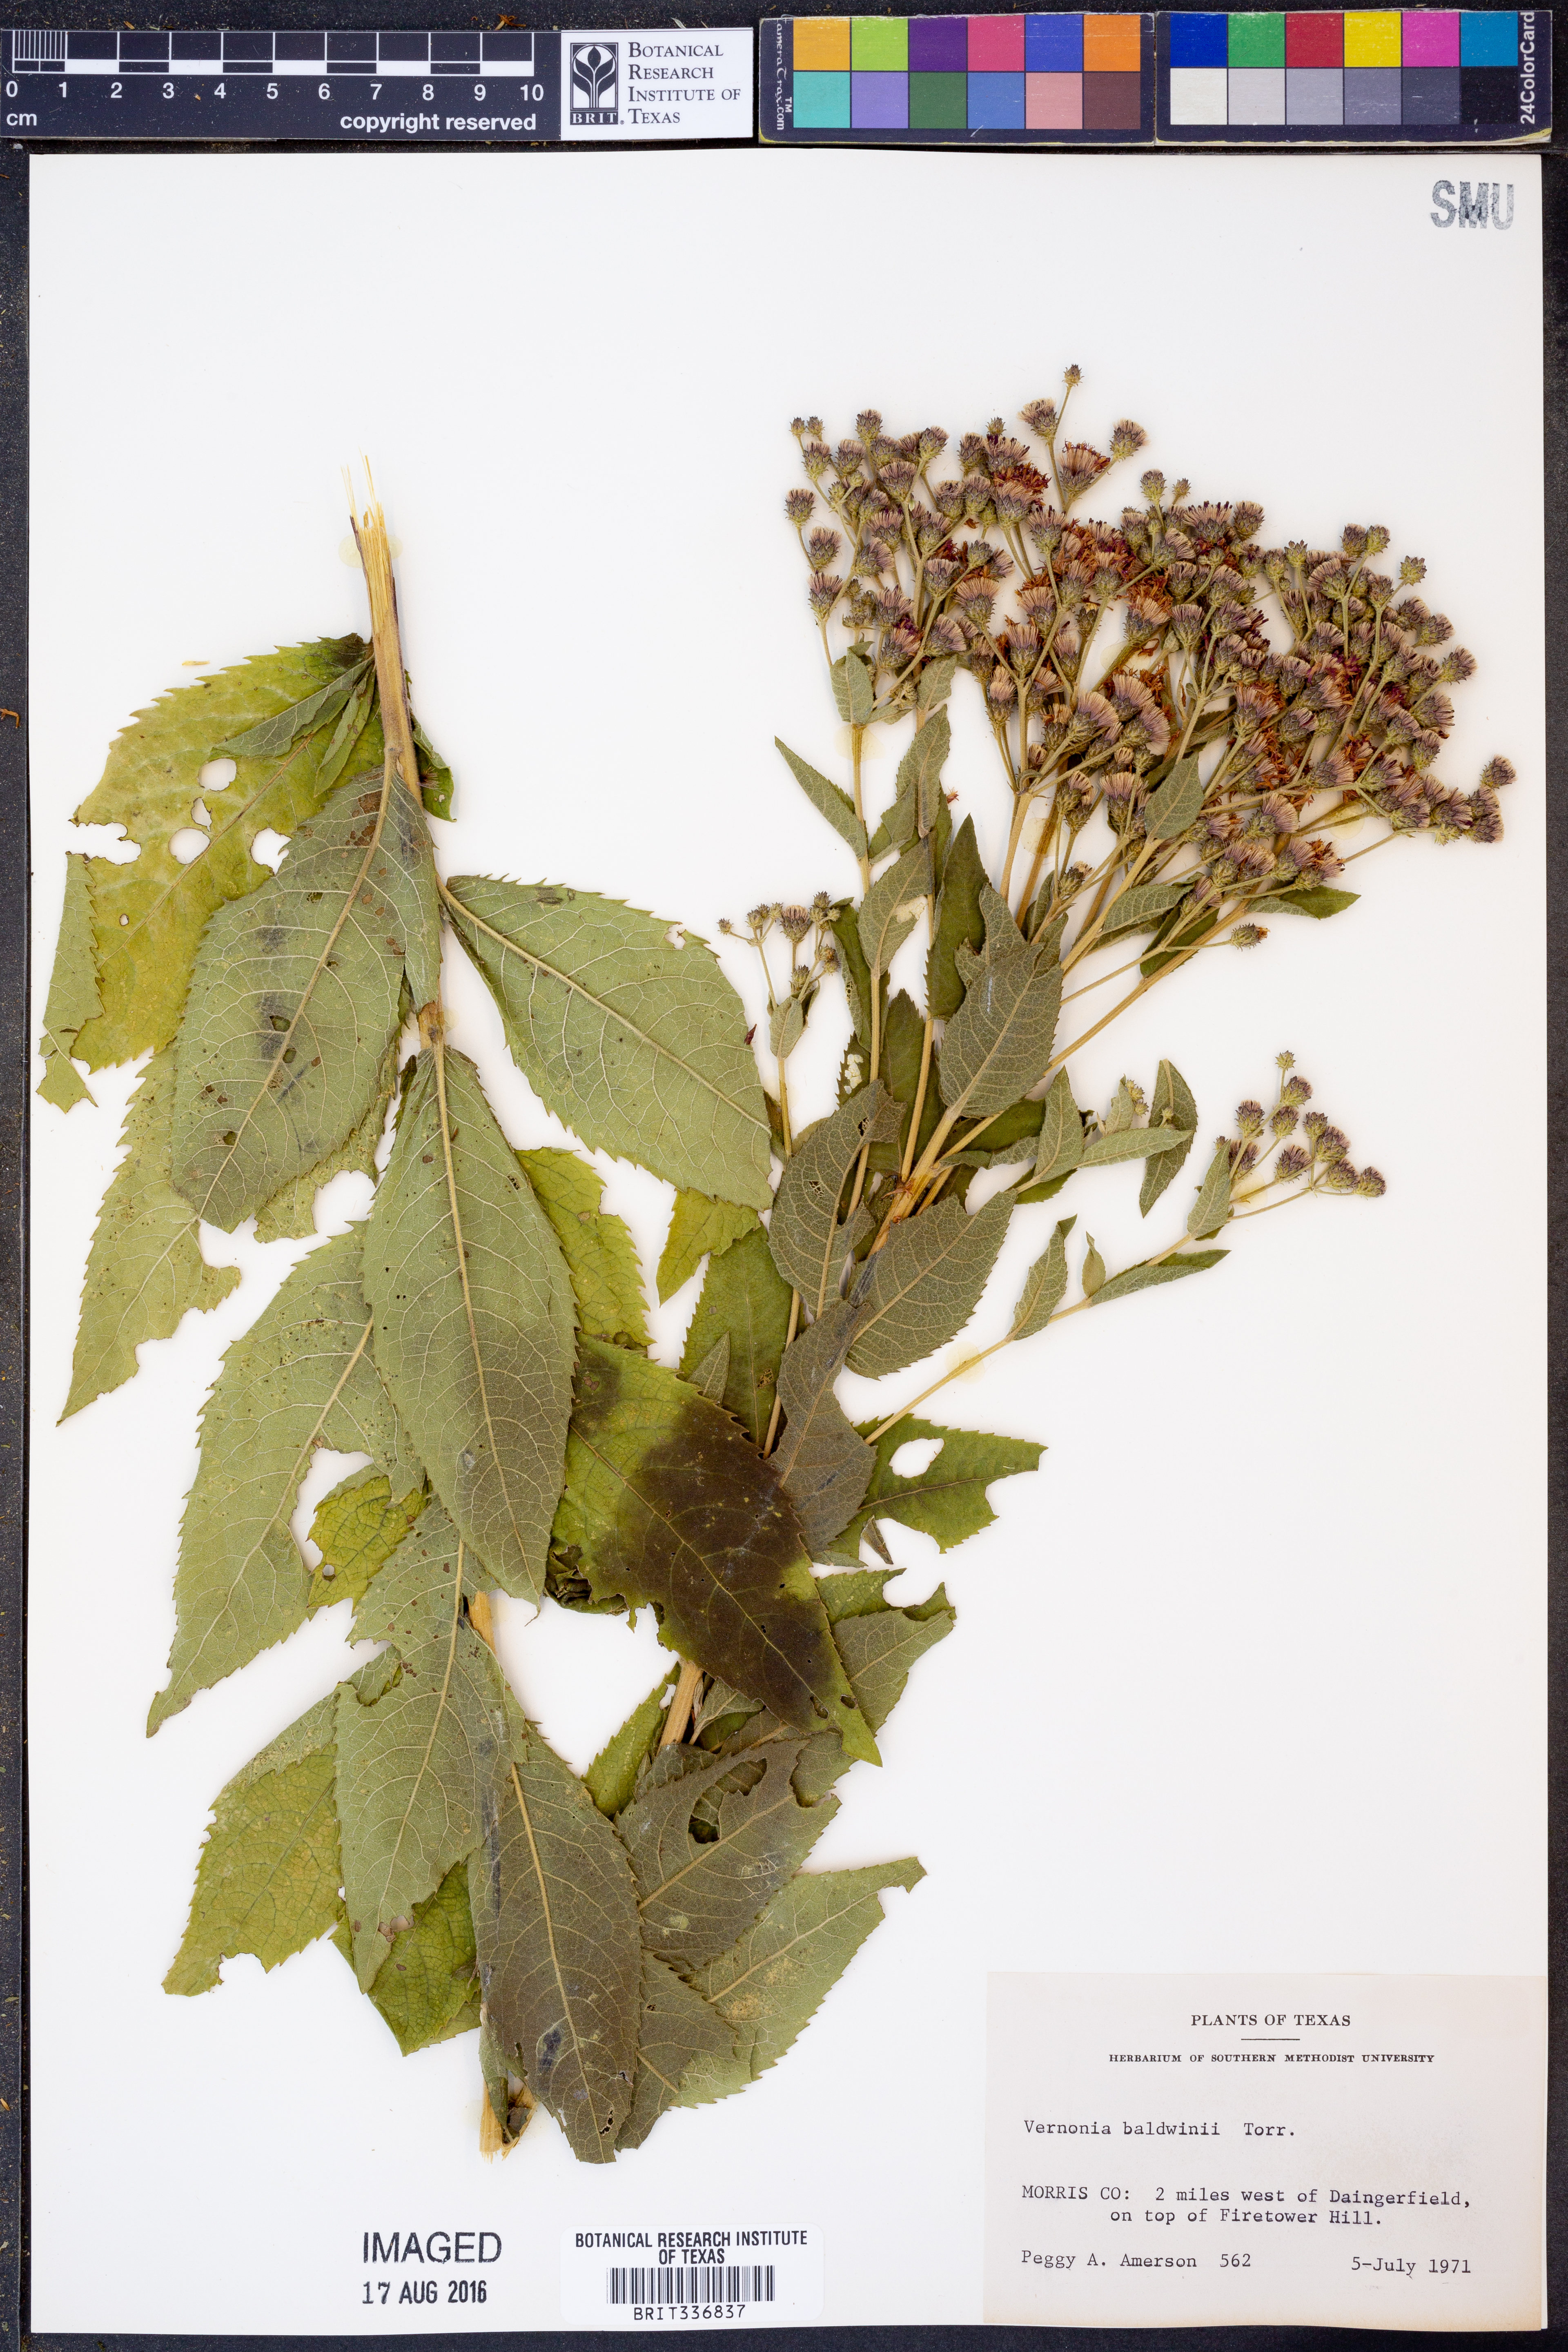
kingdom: Plantae
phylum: Tracheophyta
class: Magnoliopsida
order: Asterales
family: Asteraceae
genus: Vernonia
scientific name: Vernonia baldwinii
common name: Western ironweed
